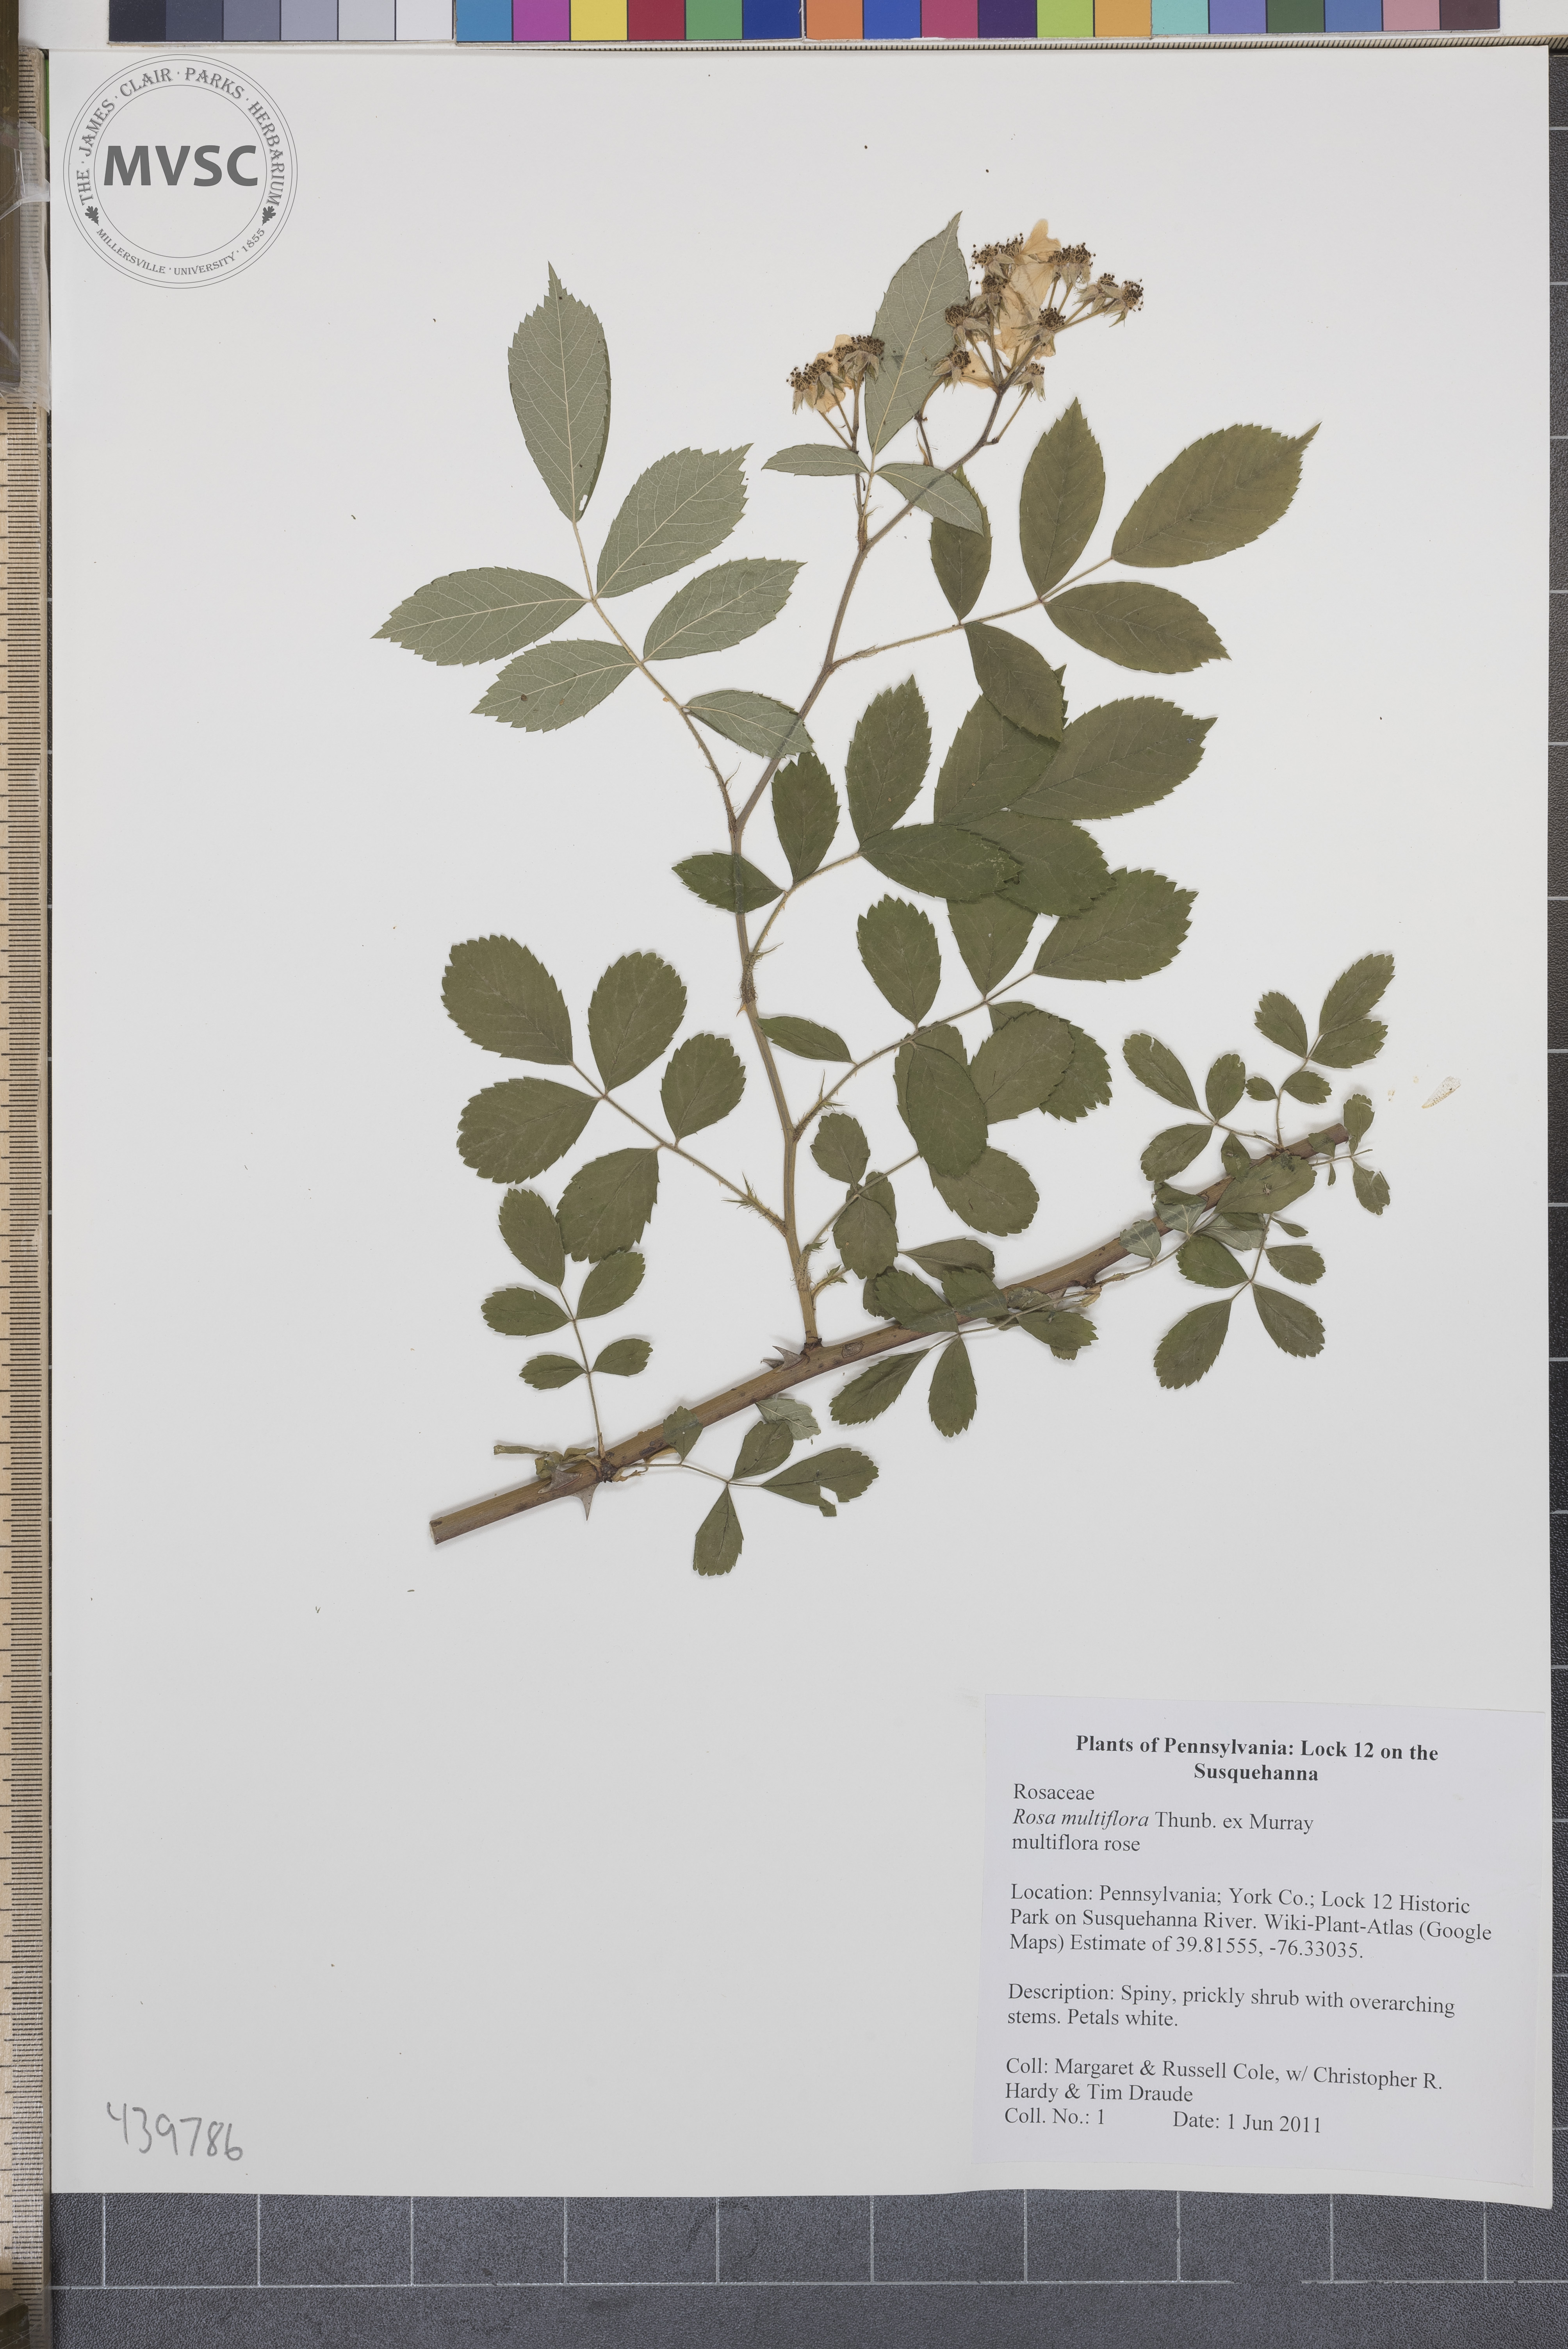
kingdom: Plantae
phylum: Tracheophyta
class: Magnoliopsida
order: Rosales
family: Rosaceae
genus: Rosa
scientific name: Rosa multiflora
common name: Multiflora rose
